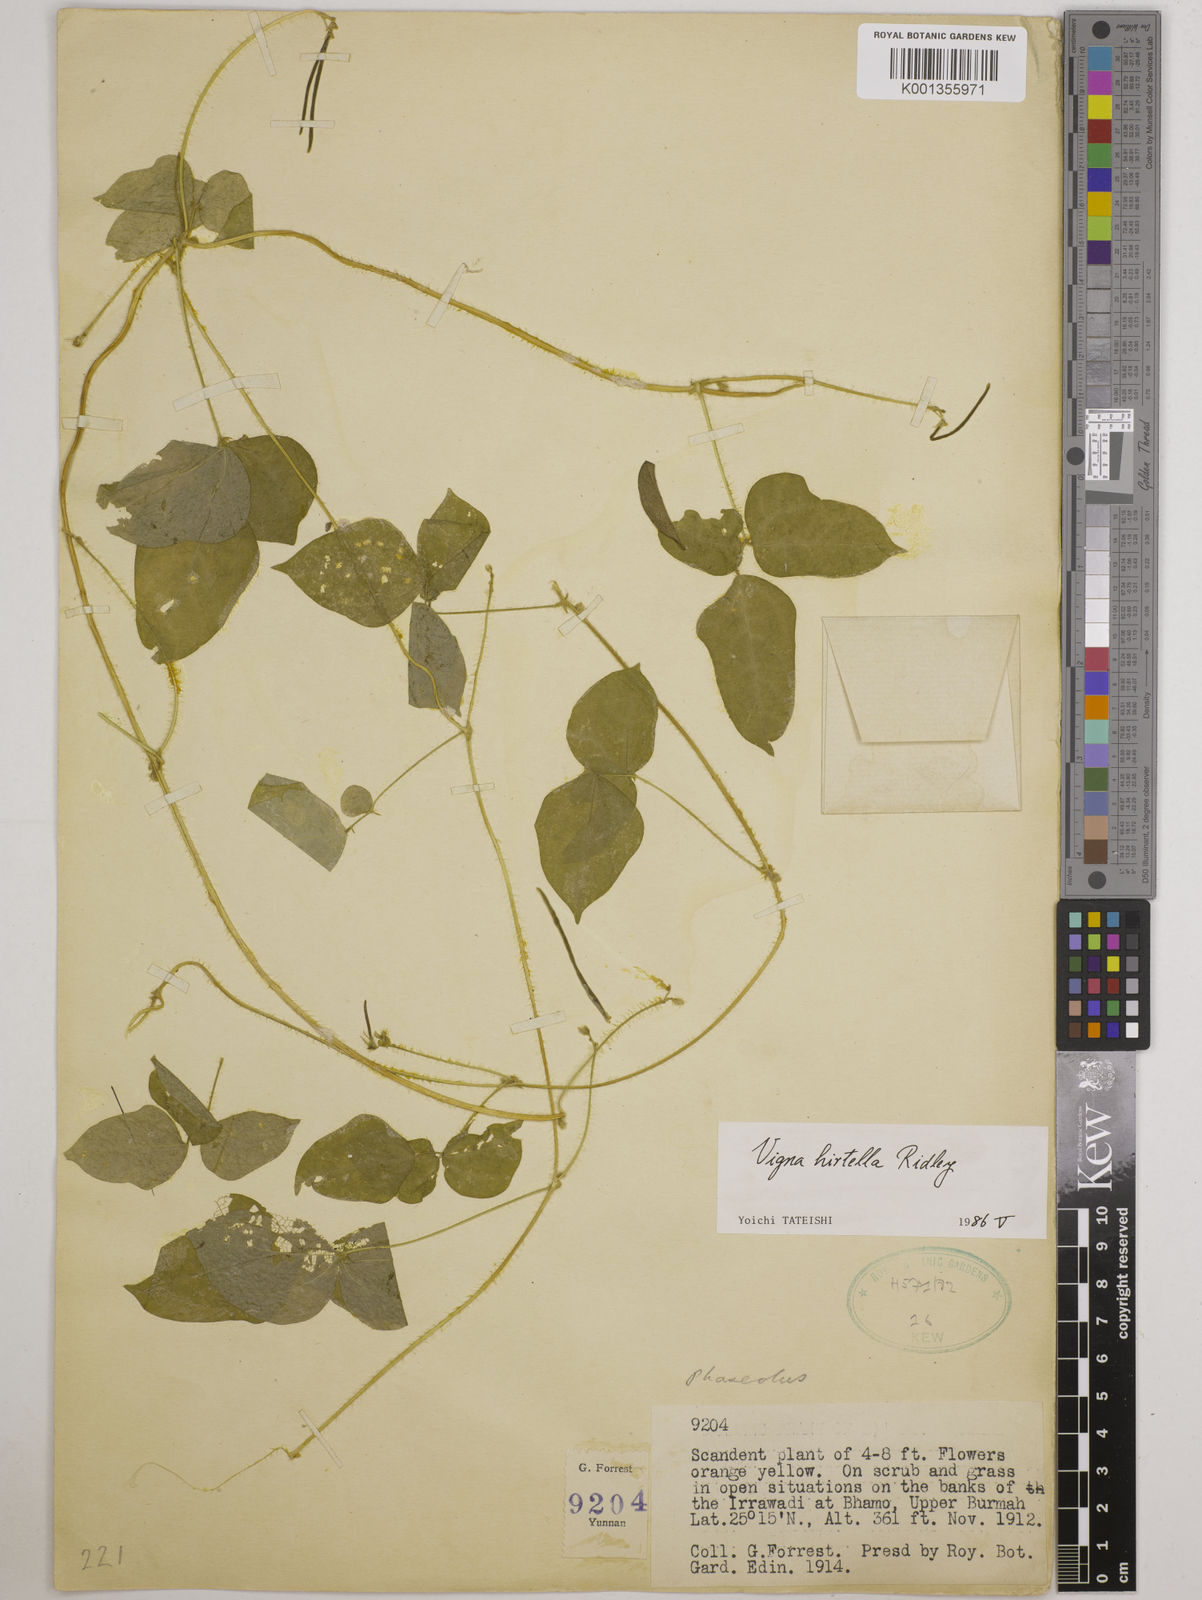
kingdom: Plantae
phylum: Tracheophyta
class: Magnoliopsida
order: Fabales
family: Fabaceae
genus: Vigna
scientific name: Vigna hirtella
